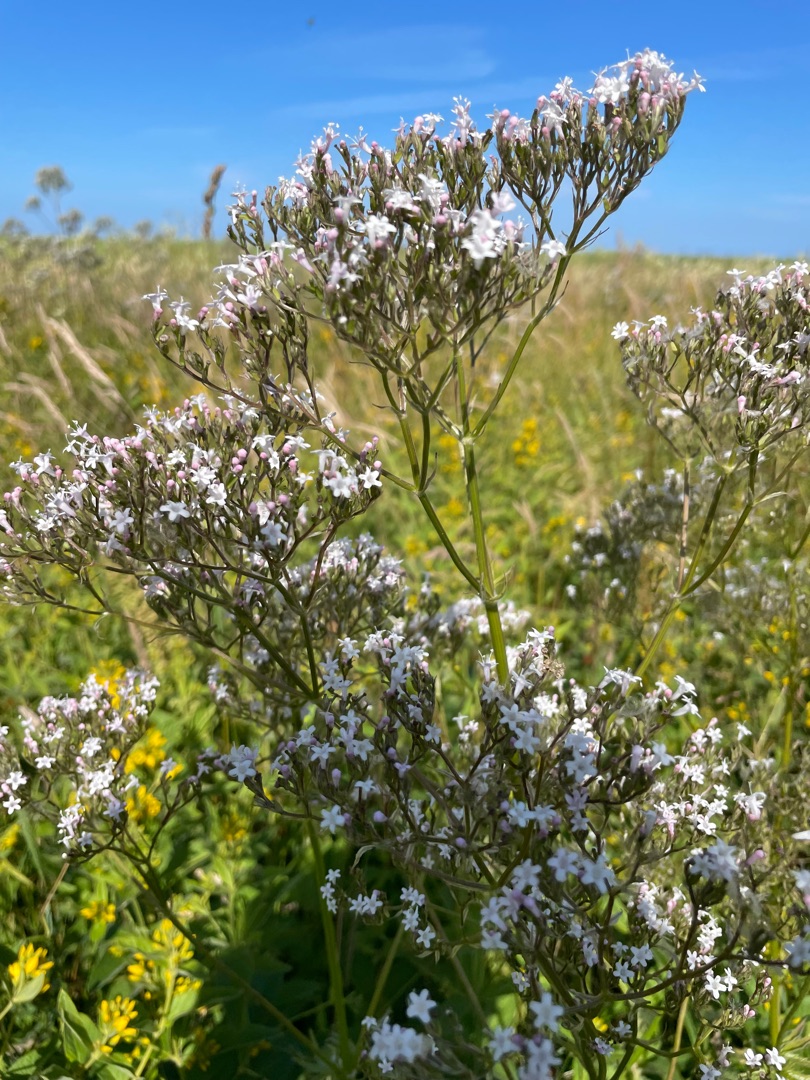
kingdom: Plantae
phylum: Tracheophyta
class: Magnoliopsida
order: Dipsacales
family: Caprifoliaceae
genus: Valeriana
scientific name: Valeriana officinalis
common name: Læge-baldrian
